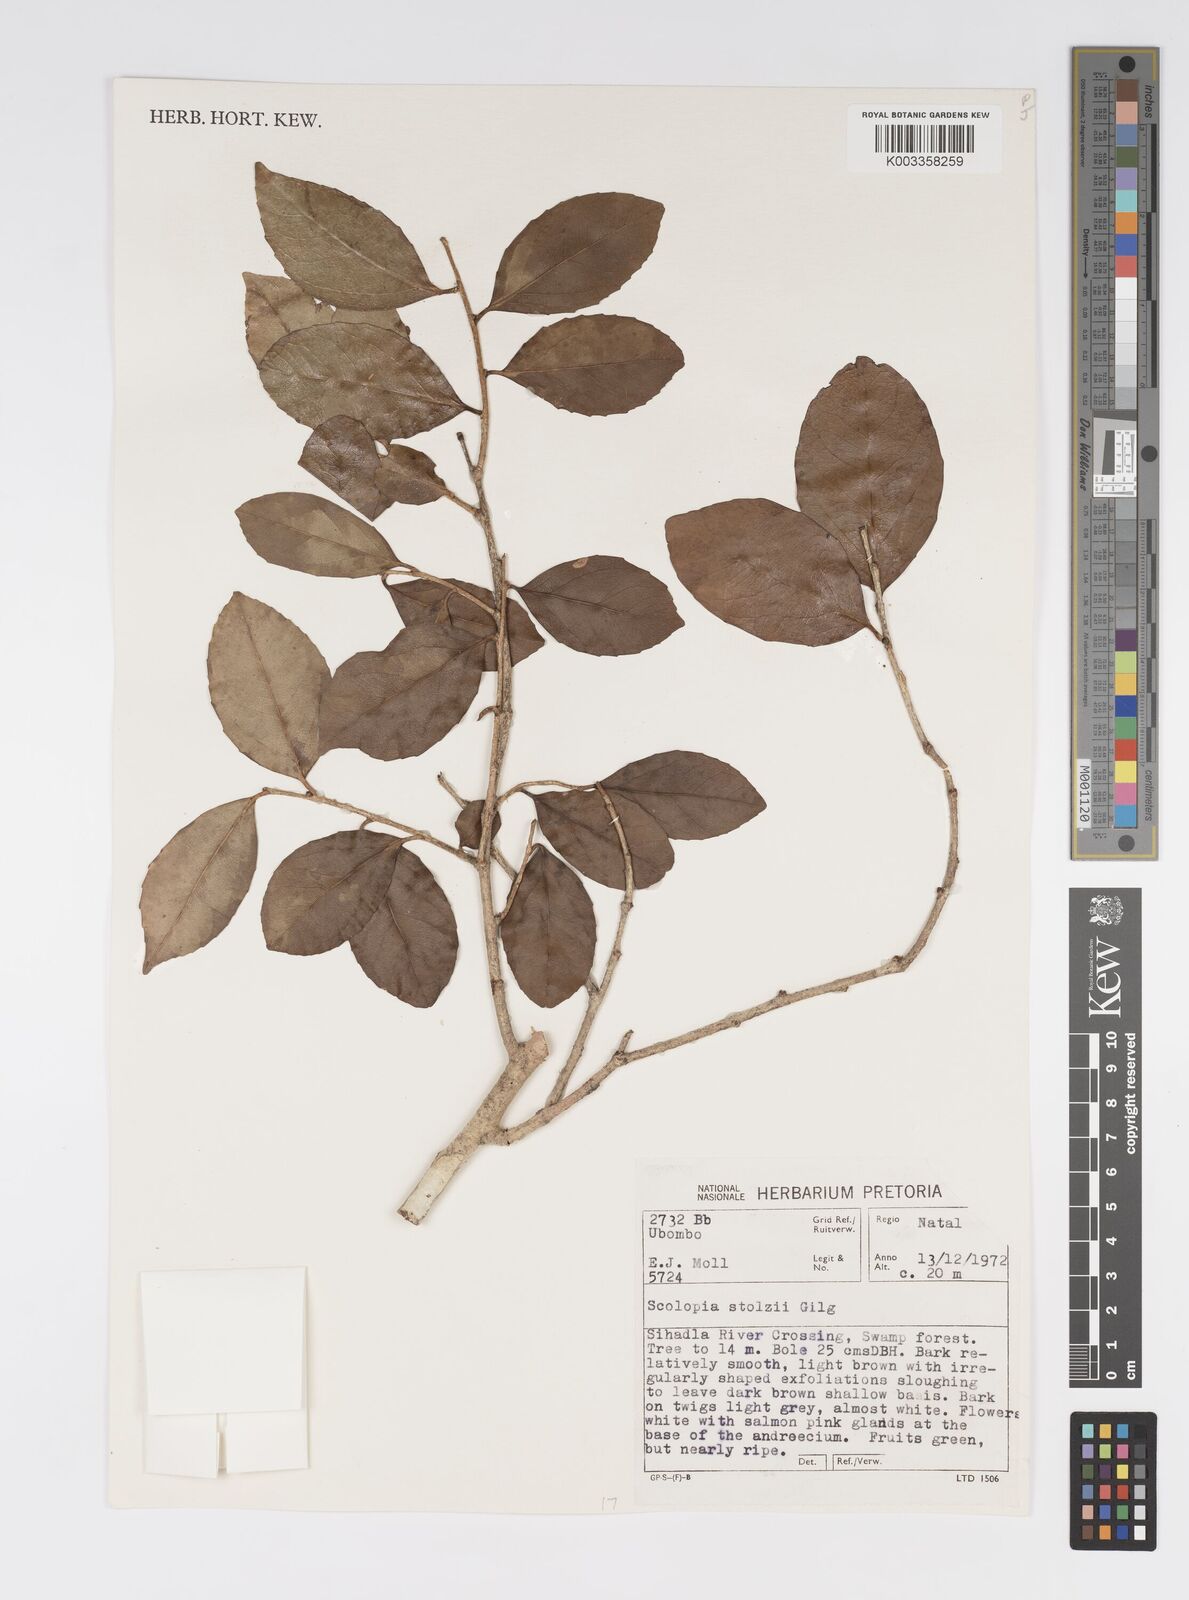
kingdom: Plantae
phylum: Tracheophyta
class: Magnoliopsida
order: Malpighiales
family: Salicaceae
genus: Scolopia
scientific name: Scolopia stolzii
